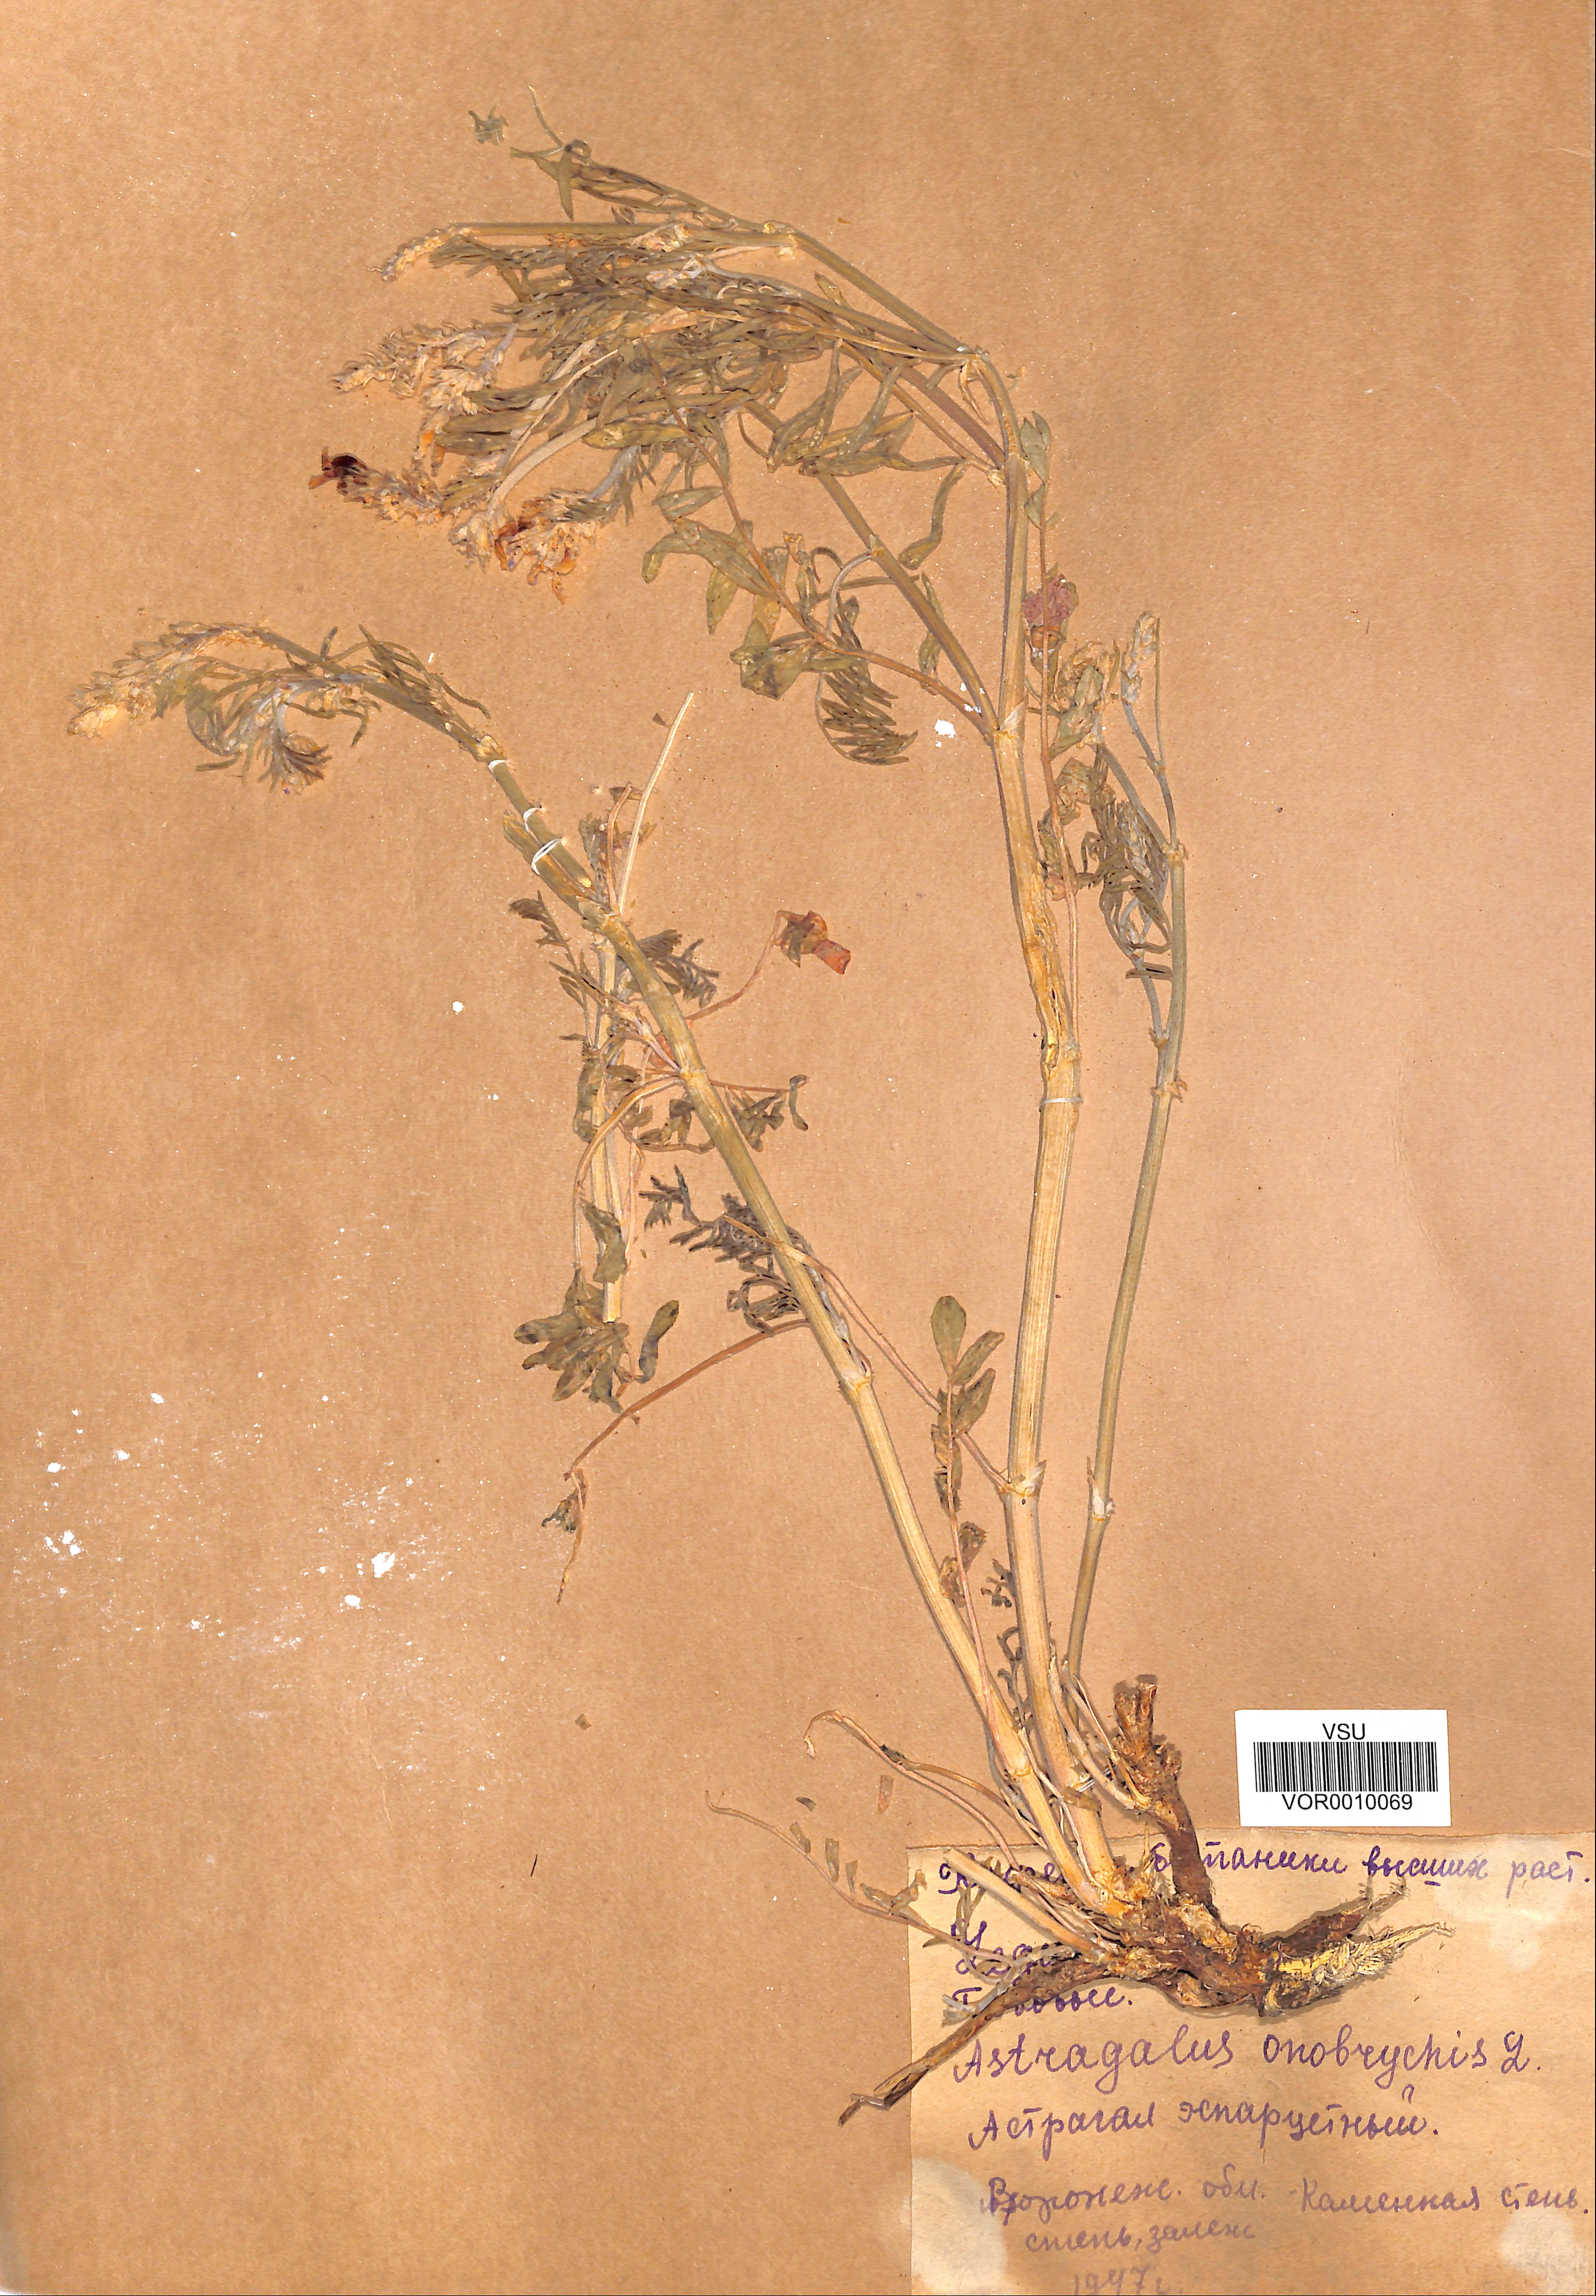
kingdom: Plantae
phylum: Tracheophyta
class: Magnoliopsida
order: Fabales
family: Fabaceae
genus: Astragalus
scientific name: Astragalus onobrychis
